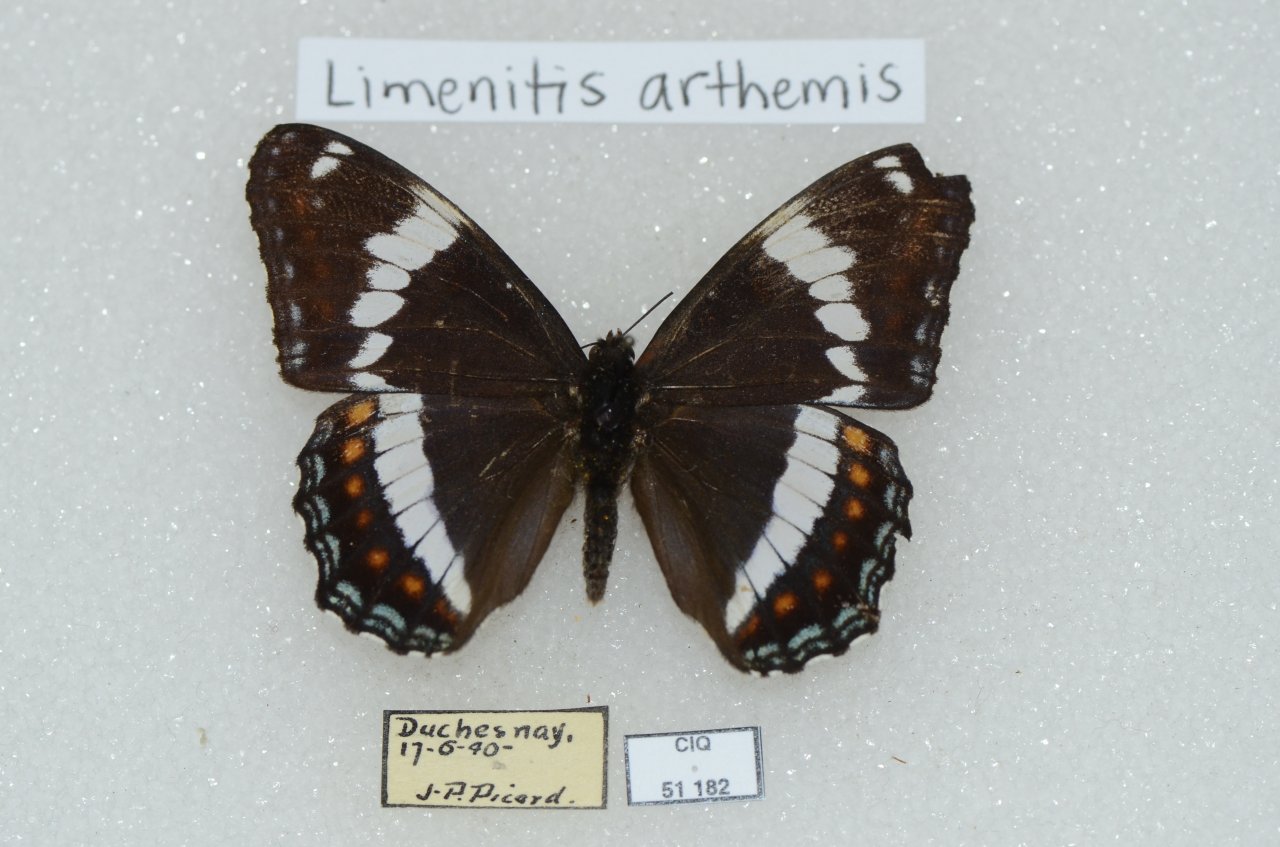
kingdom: Animalia
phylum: Arthropoda
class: Insecta
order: Lepidoptera
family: Nymphalidae
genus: Limenitis
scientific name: Limenitis arthemis
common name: Red-spotted Admiral
